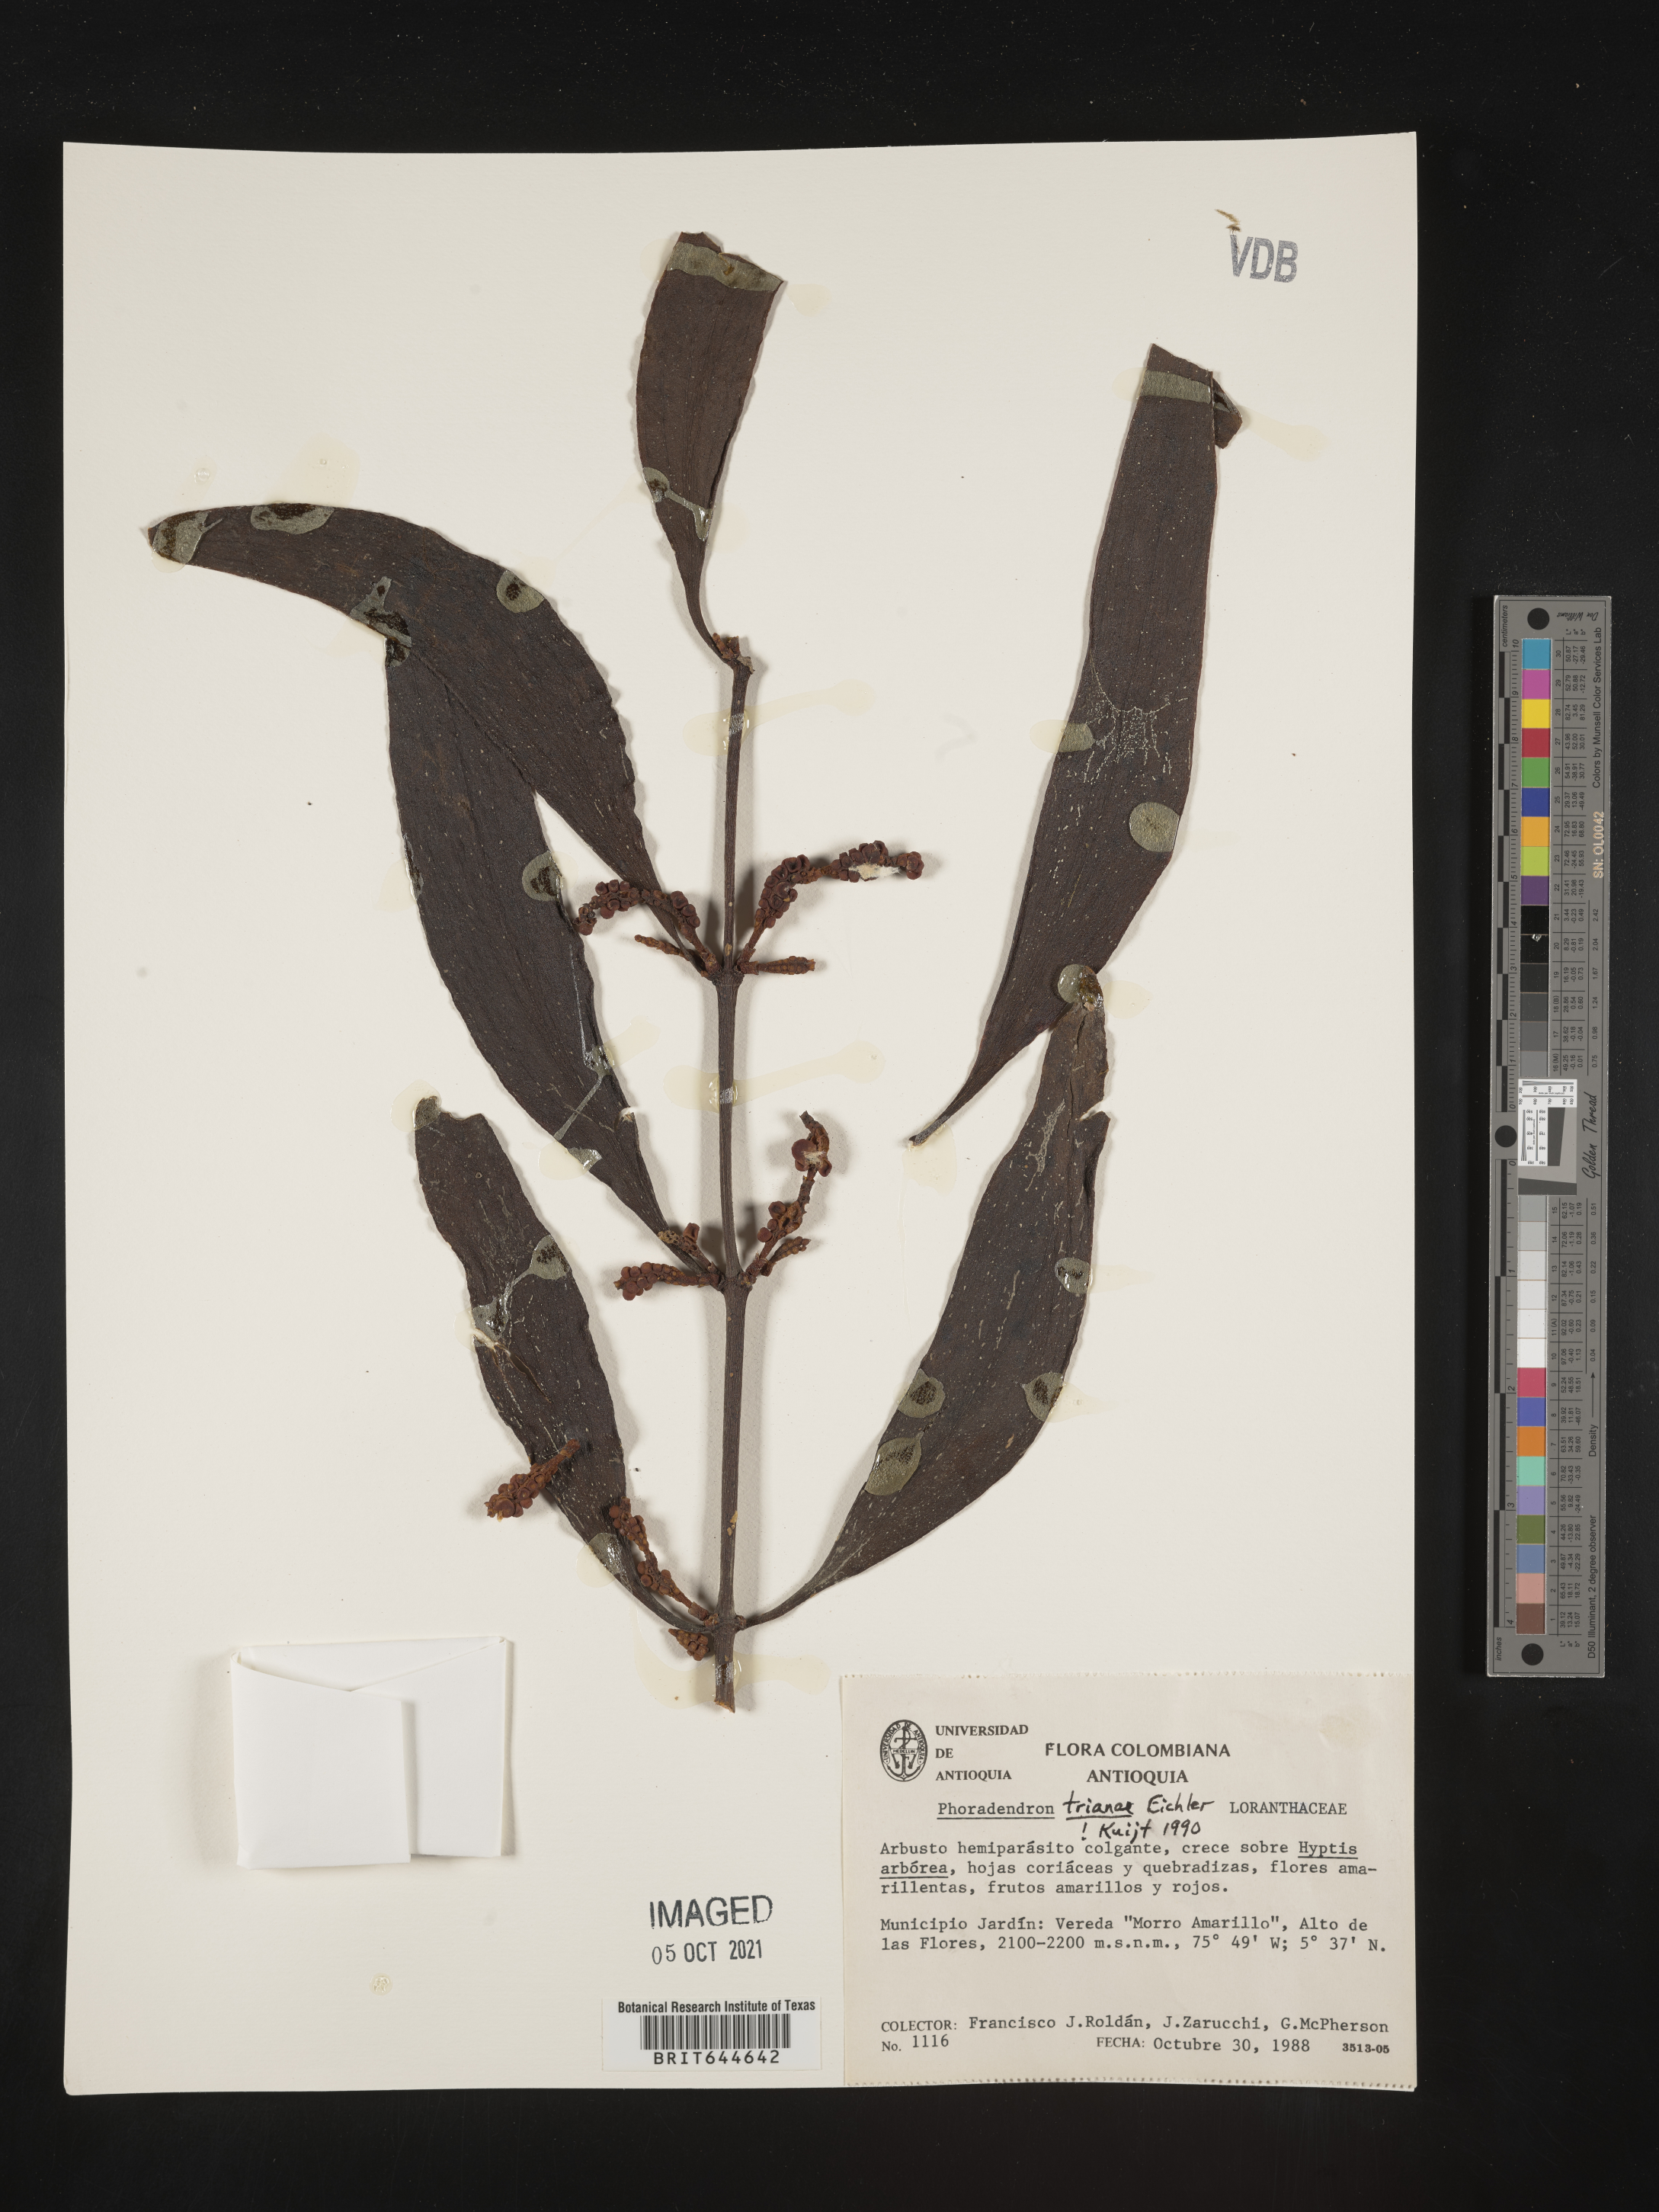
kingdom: Plantae
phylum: Tracheophyta
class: Magnoliopsida
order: Santalales
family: Viscaceae
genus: Phoradendron
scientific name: Phoradendron
